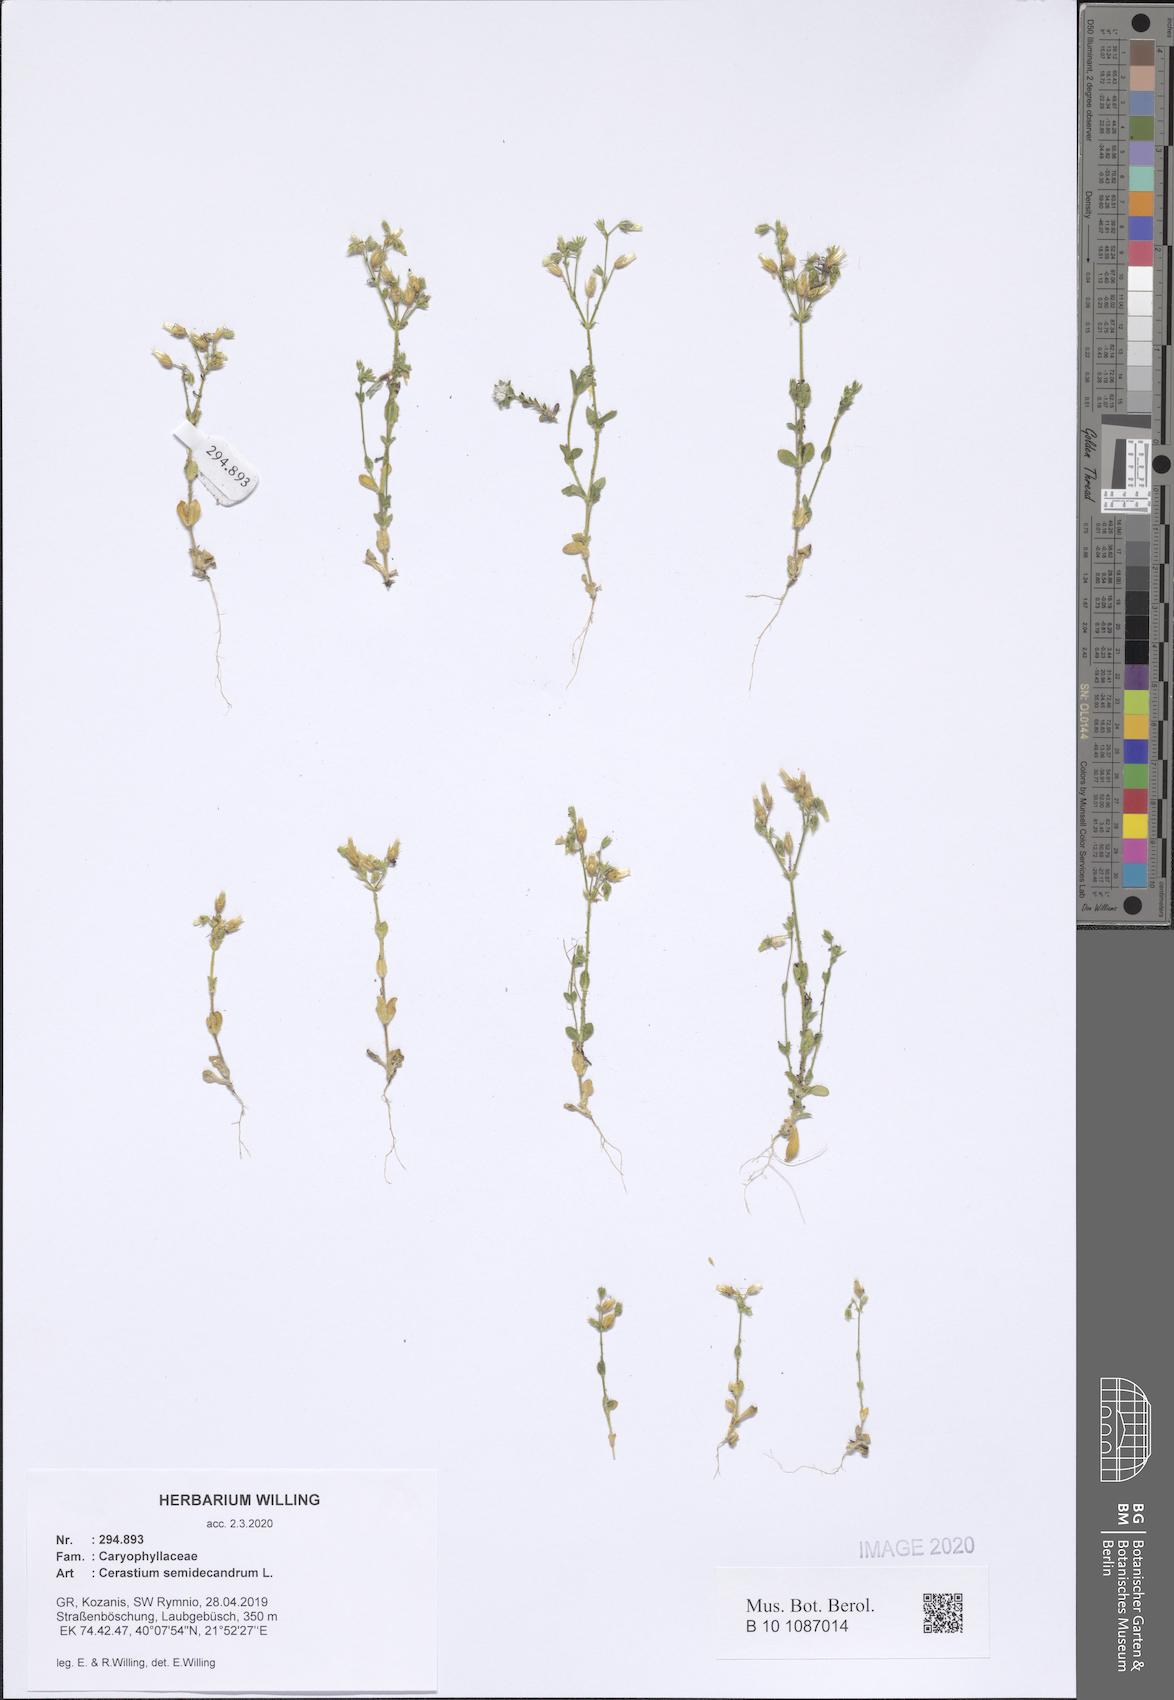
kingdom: Plantae
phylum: Tracheophyta
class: Magnoliopsida
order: Caryophyllales
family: Caryophyllaceae
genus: Cerastium
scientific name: Cerastium semidecandrum
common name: Little mouse-ear
